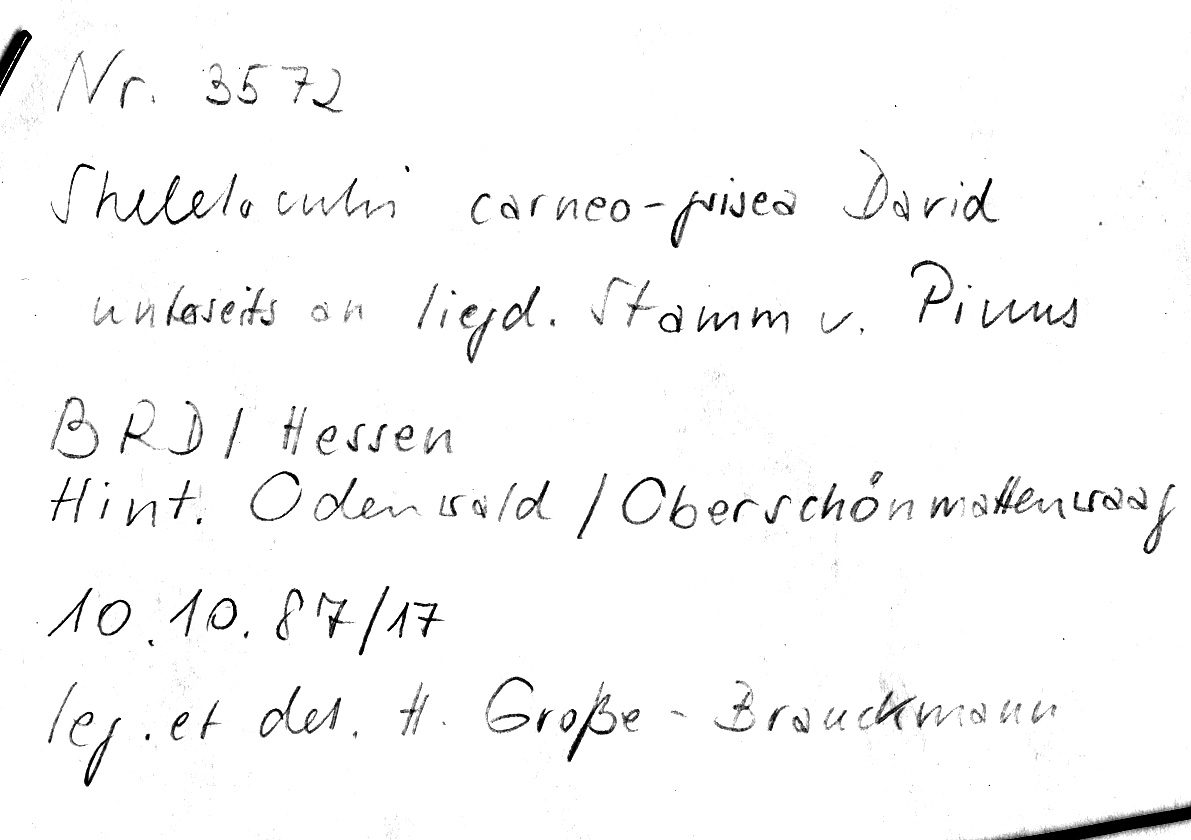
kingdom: Fungi
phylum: Basidiomycota
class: Agaricomycetes
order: Polyporales
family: Incrustoporiaceae
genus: Skeletocutis
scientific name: Skeletocutis carneogrisea
